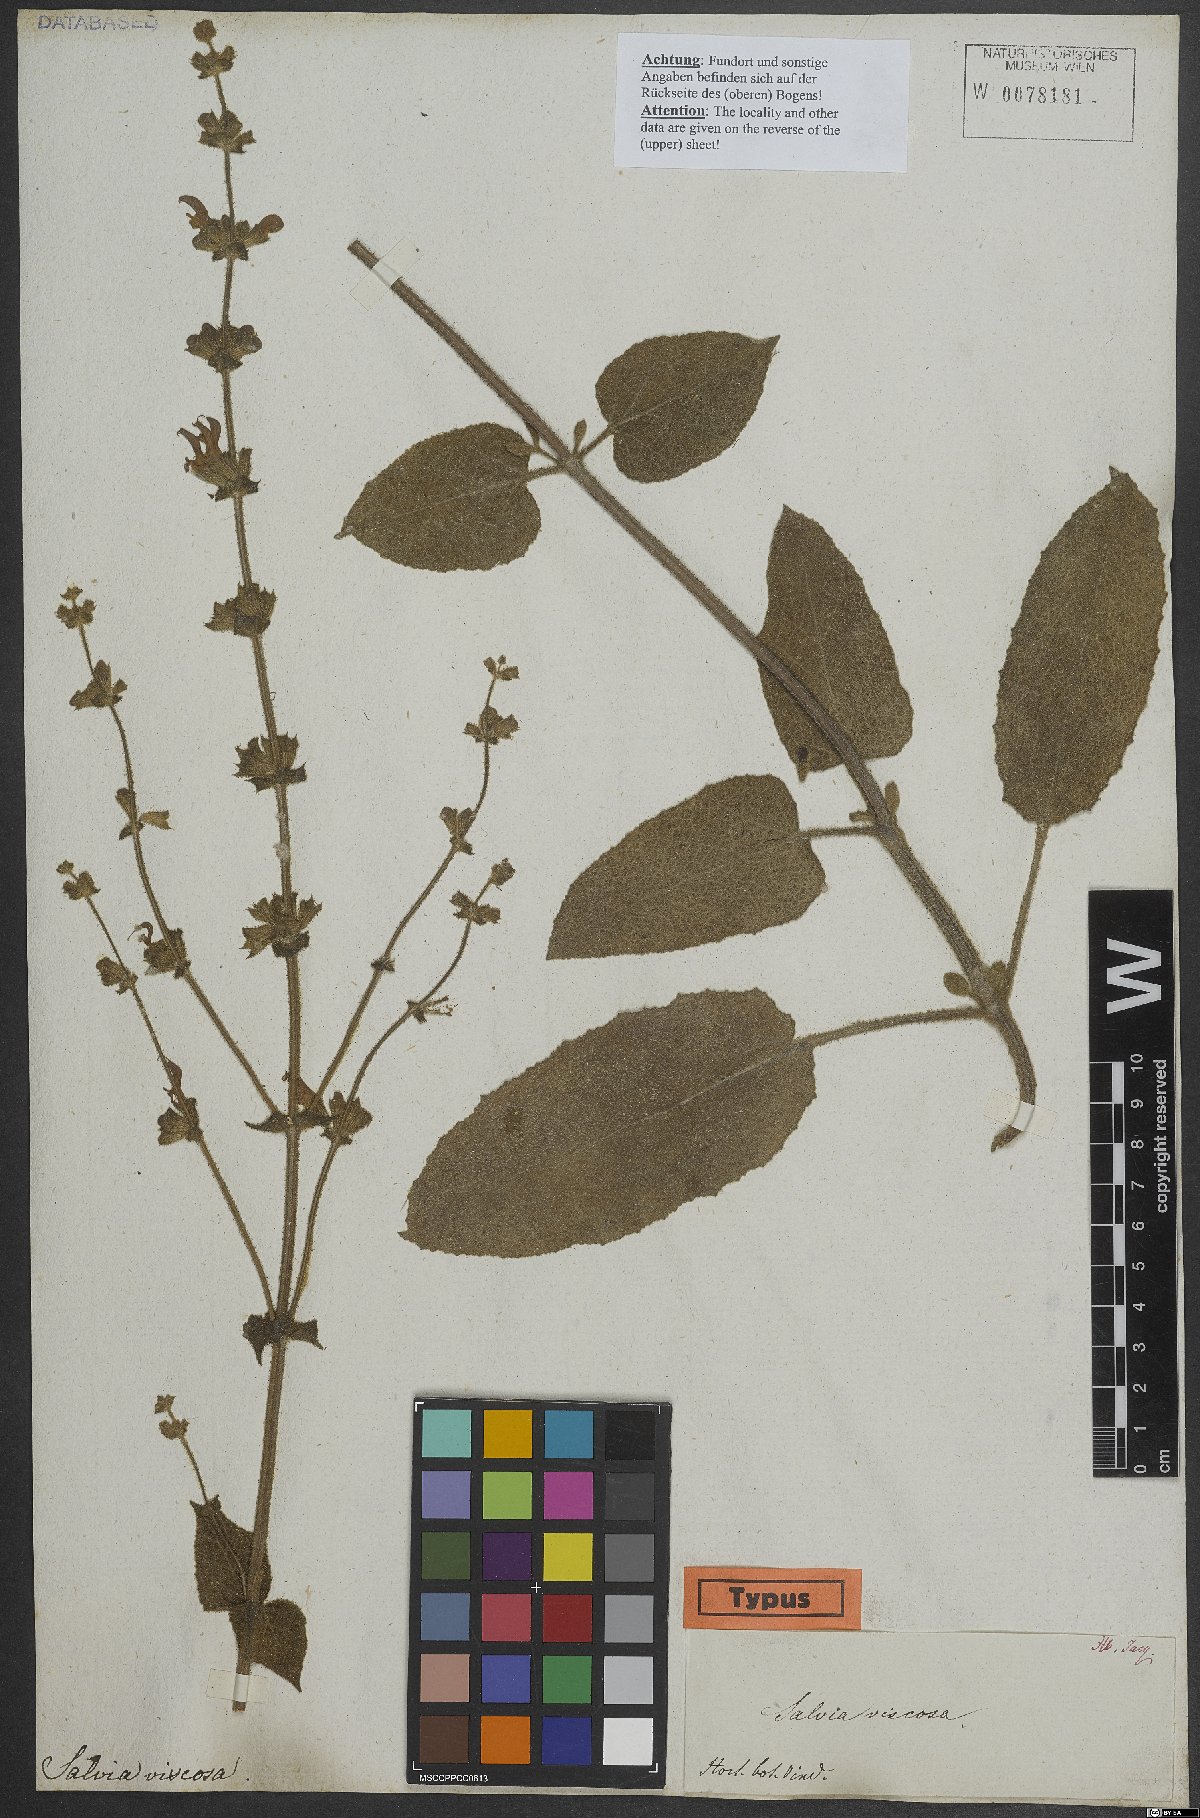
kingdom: Plantae
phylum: Tracheophyta
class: Magnoliopsida
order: Lamiales
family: Lamiaceae
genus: Salvia
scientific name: Salvia viscosa
